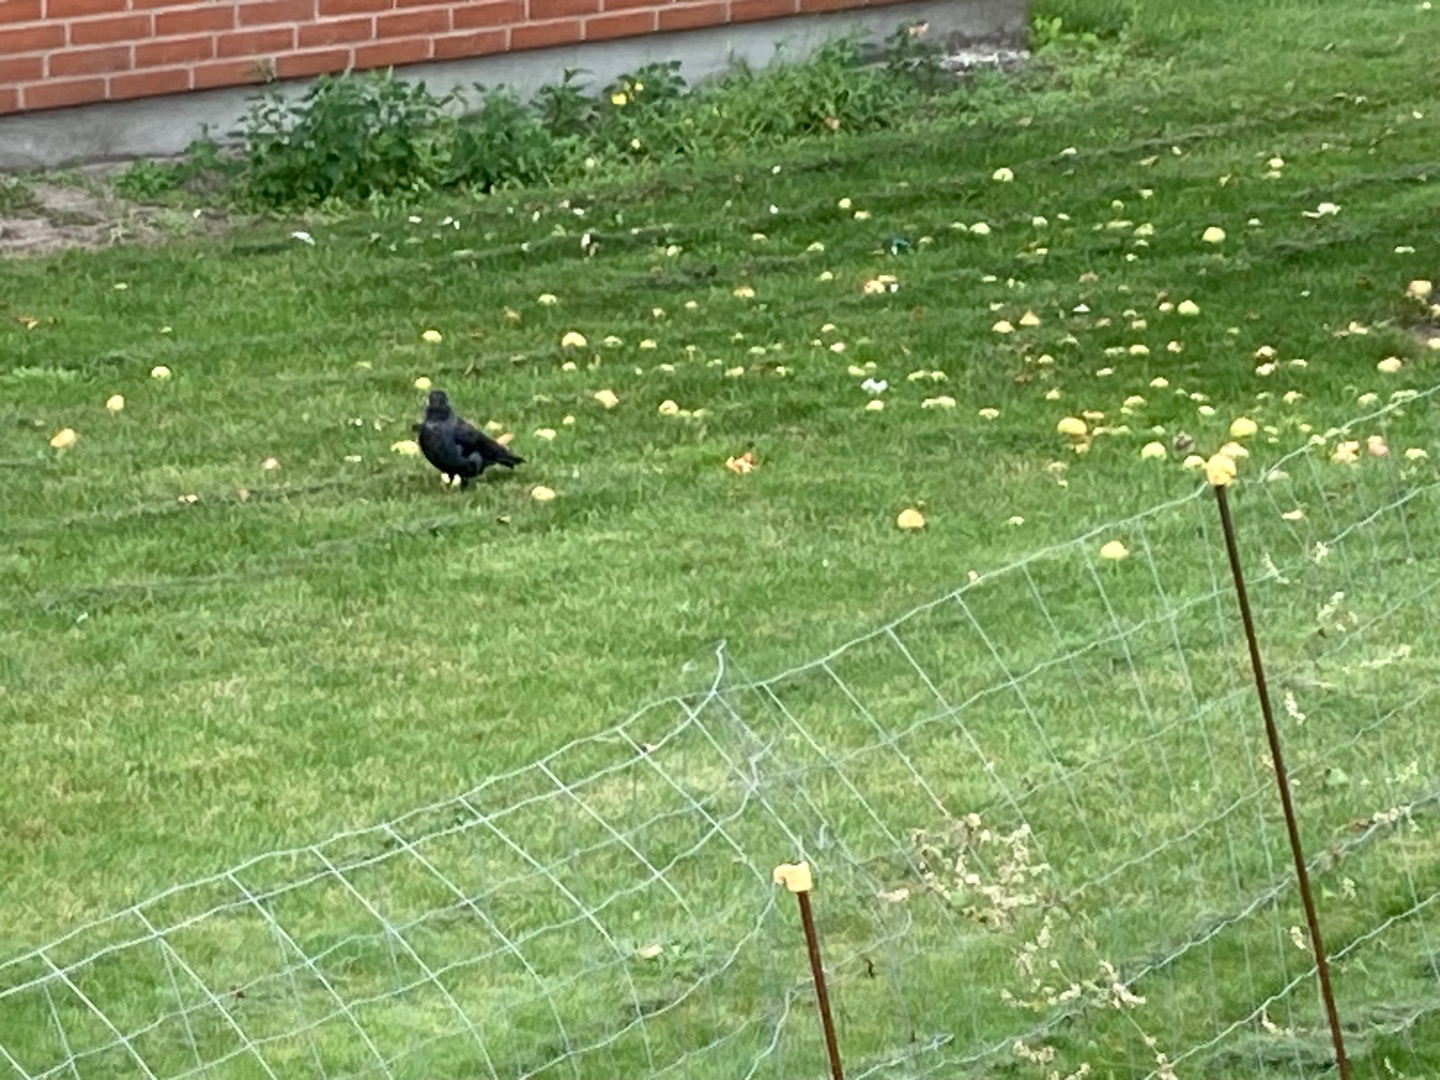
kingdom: Animalia
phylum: Chordata
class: Aves
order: Passeriformes
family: Corvidae
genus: Coloeus
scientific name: Coloeus monedula
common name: Allike
